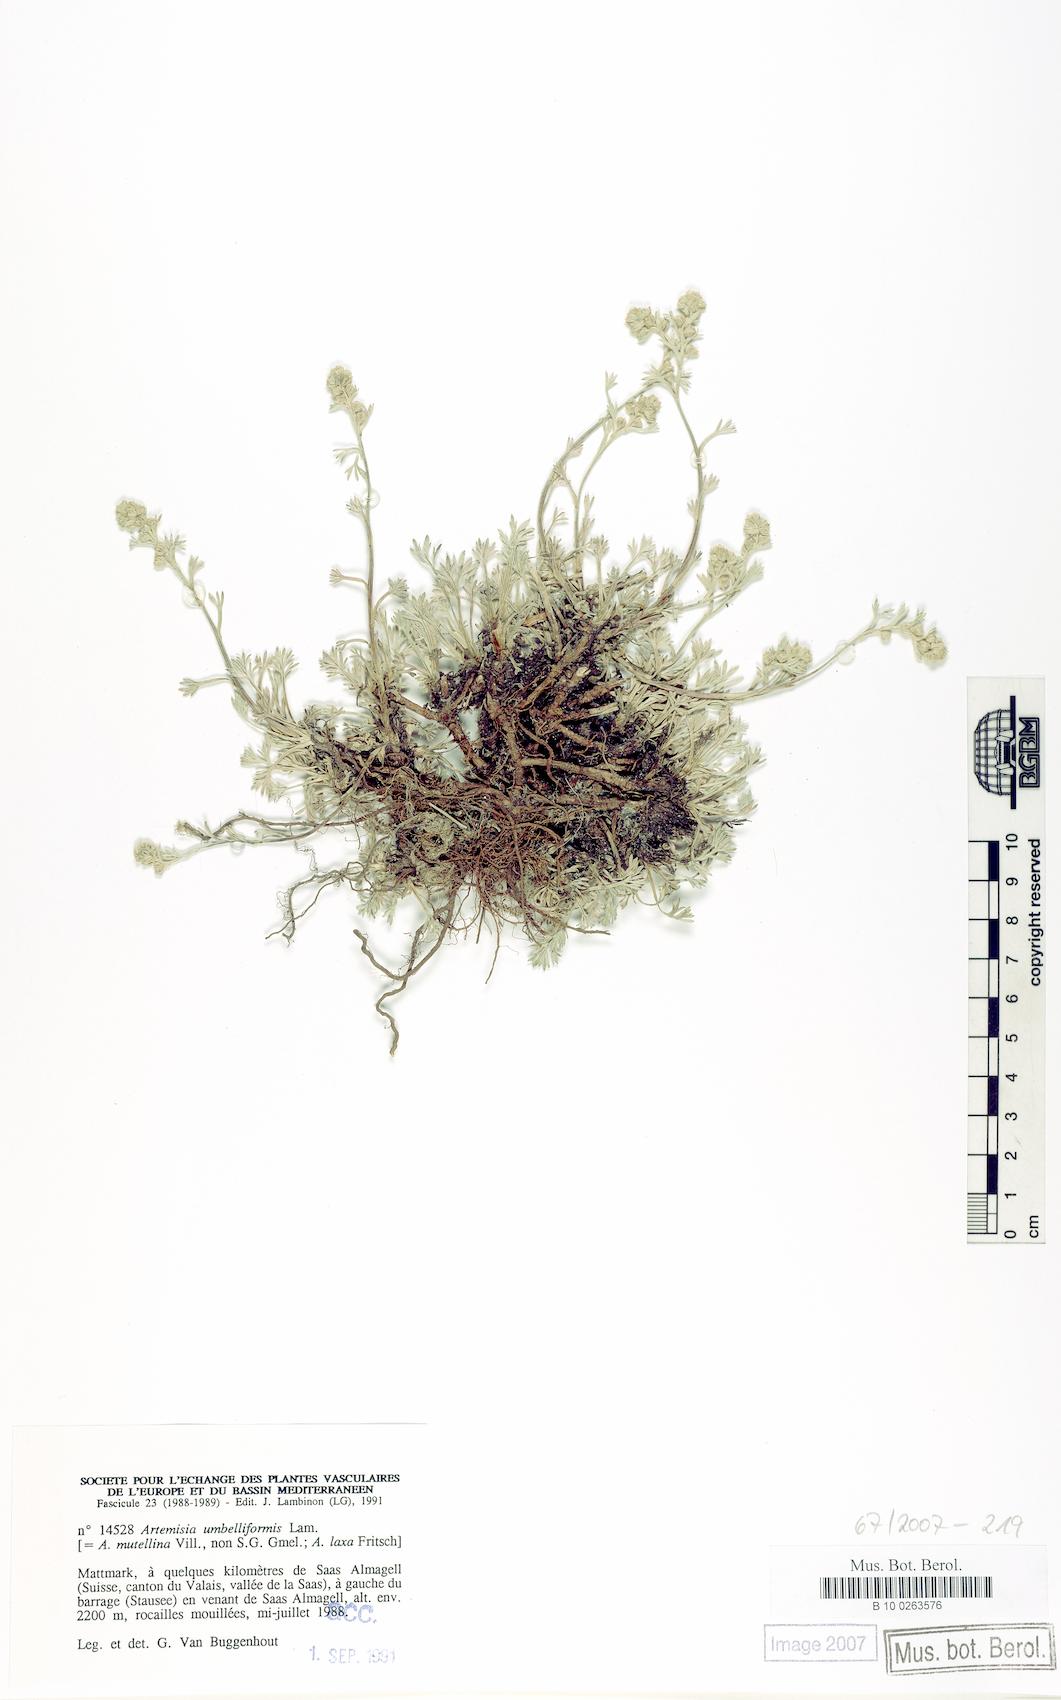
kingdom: Plantae
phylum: Tracheophyta
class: Magnoliopsida
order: Asterales
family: Asteraceae
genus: Artemisia
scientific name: Artemisia umbelliformis
